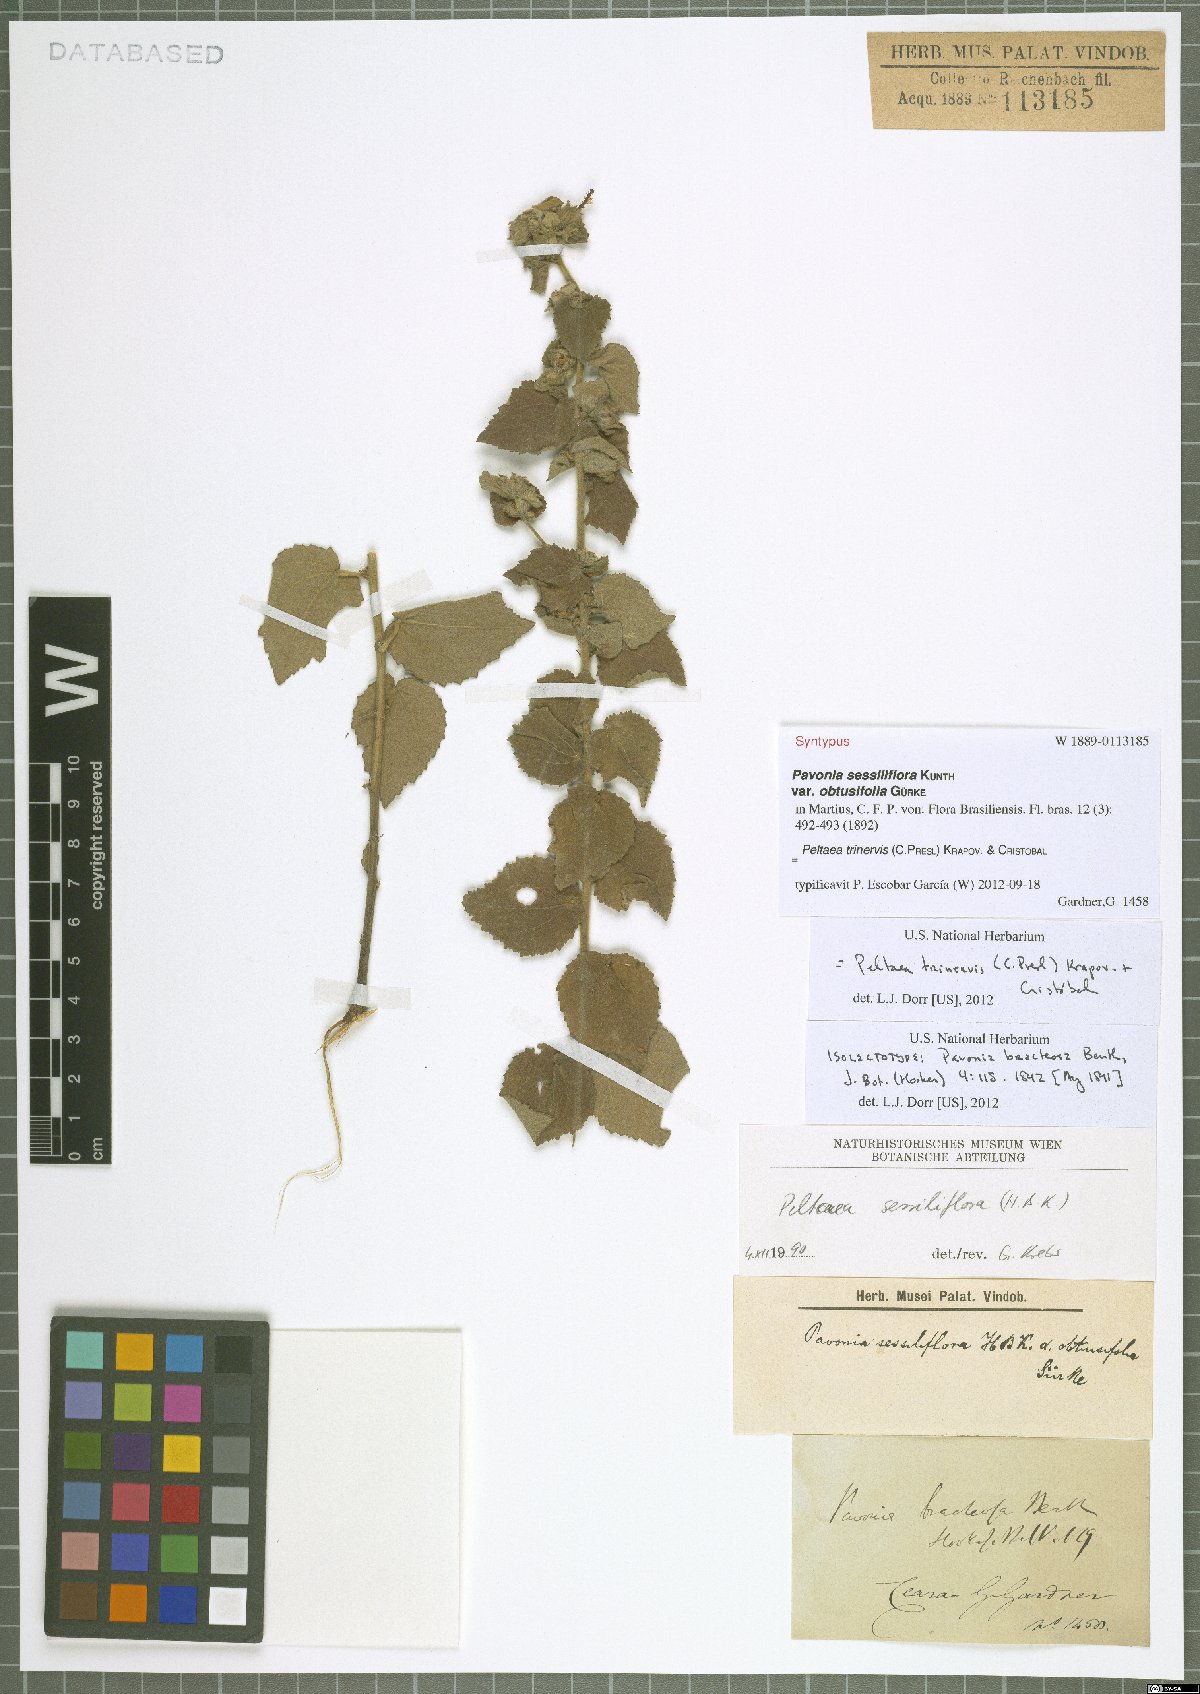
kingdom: Plantae
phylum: Tracheophyta
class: Magnoliopsida
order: Malvales
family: Malvaceae
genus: Peltaea
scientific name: Peltaea trinervis
